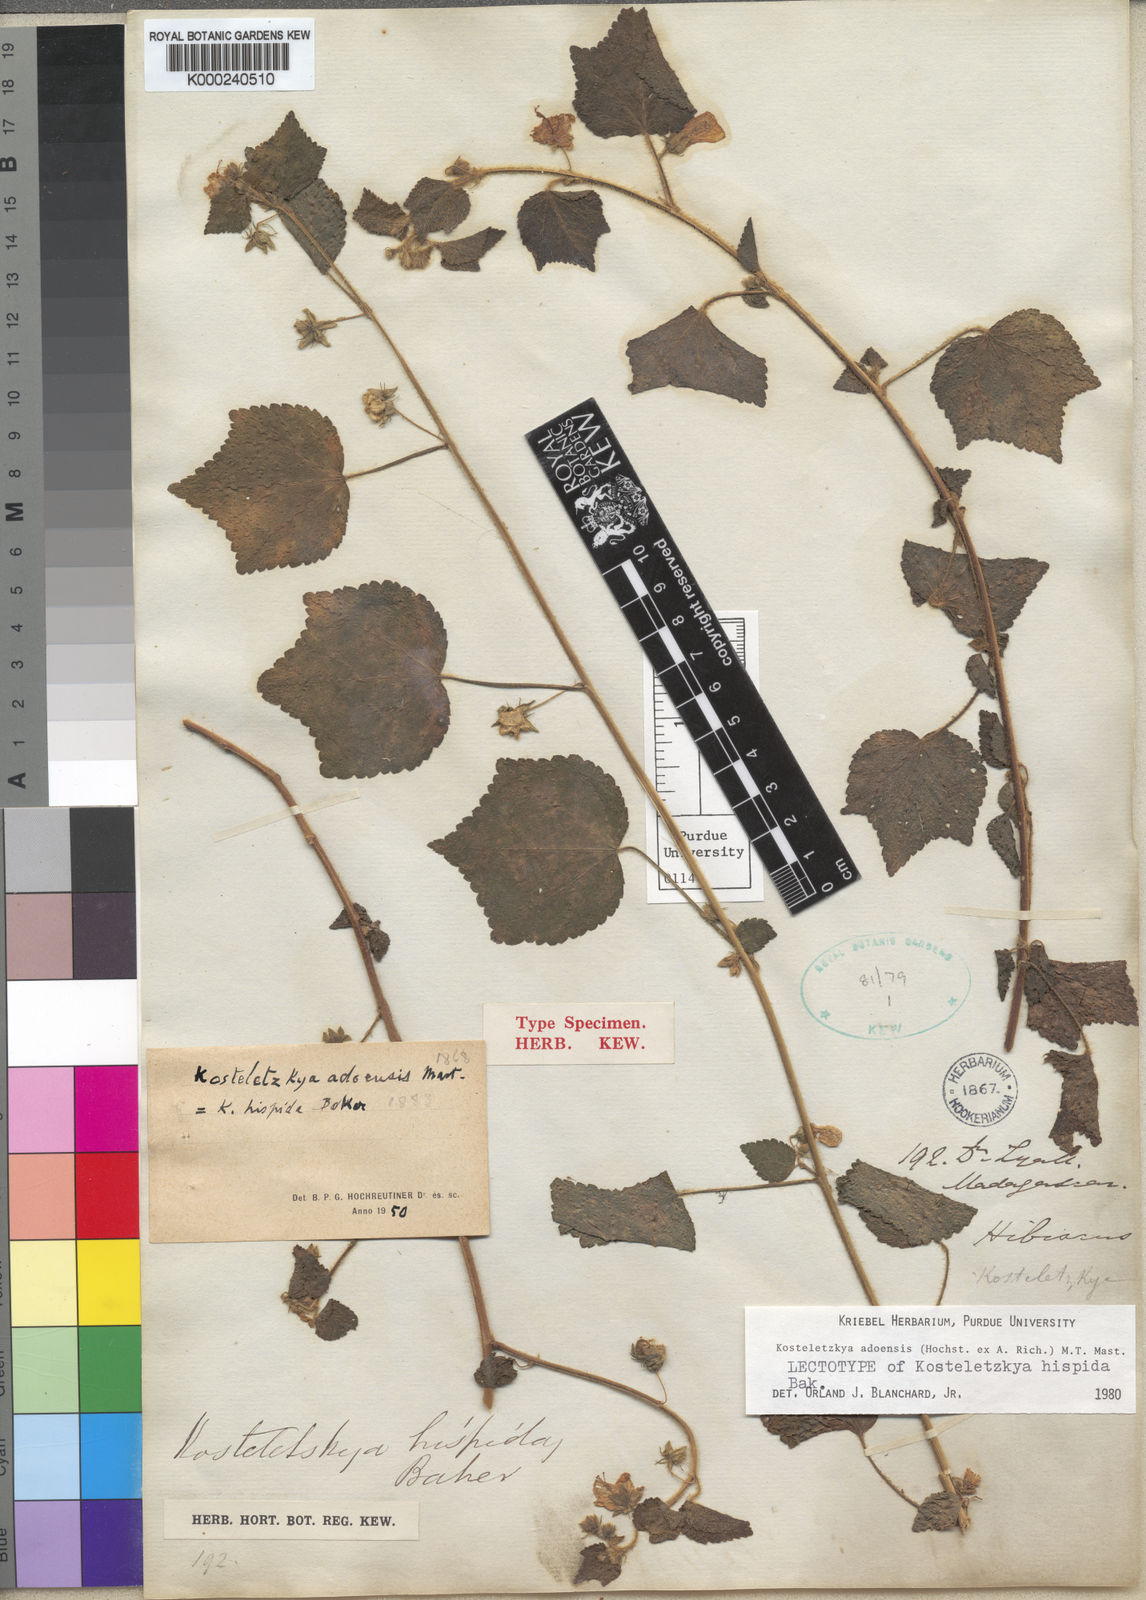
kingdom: Plantae
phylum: Tracheophyta
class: Magnoliopsida
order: Malvales
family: Malvaceae
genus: Kosteletzkya
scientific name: Kosteletzkya adoensis
